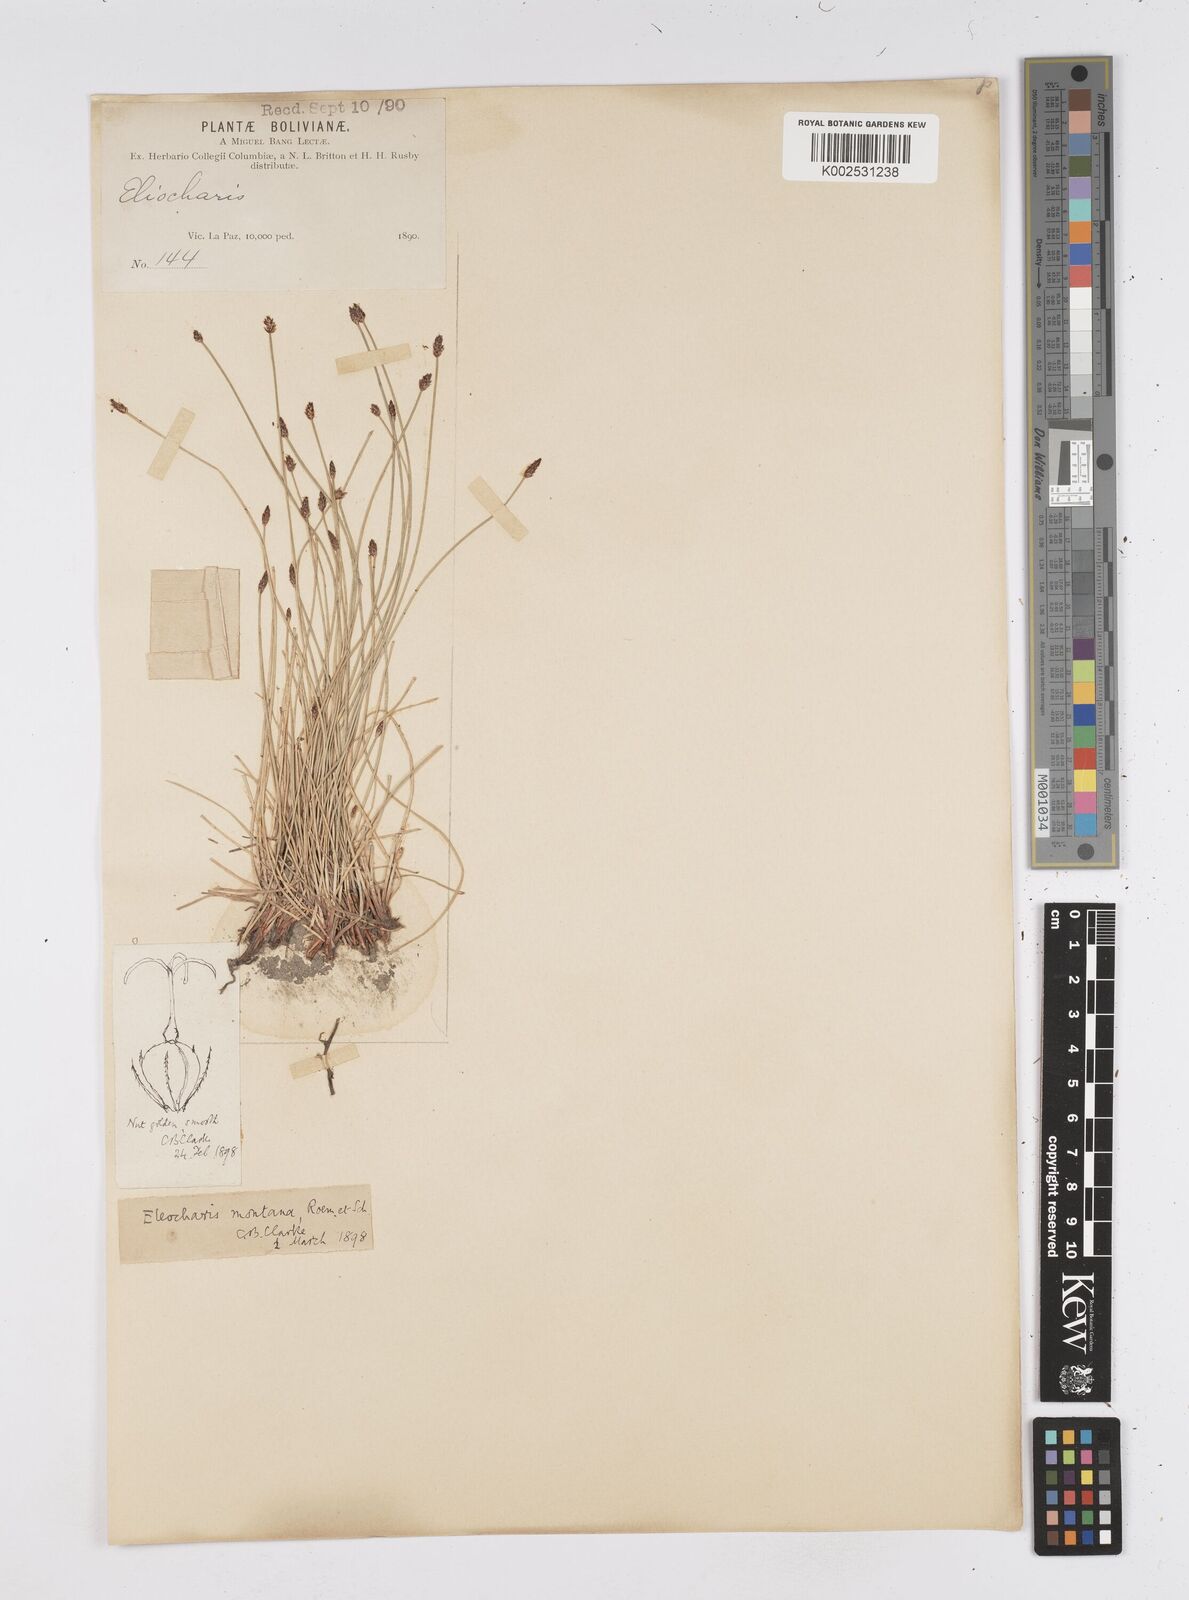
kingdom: Plantae
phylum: Tracheophyta
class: Liliopsida
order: Poales
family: Cyperaceae
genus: Eleocharis
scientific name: Eleocharis montana
